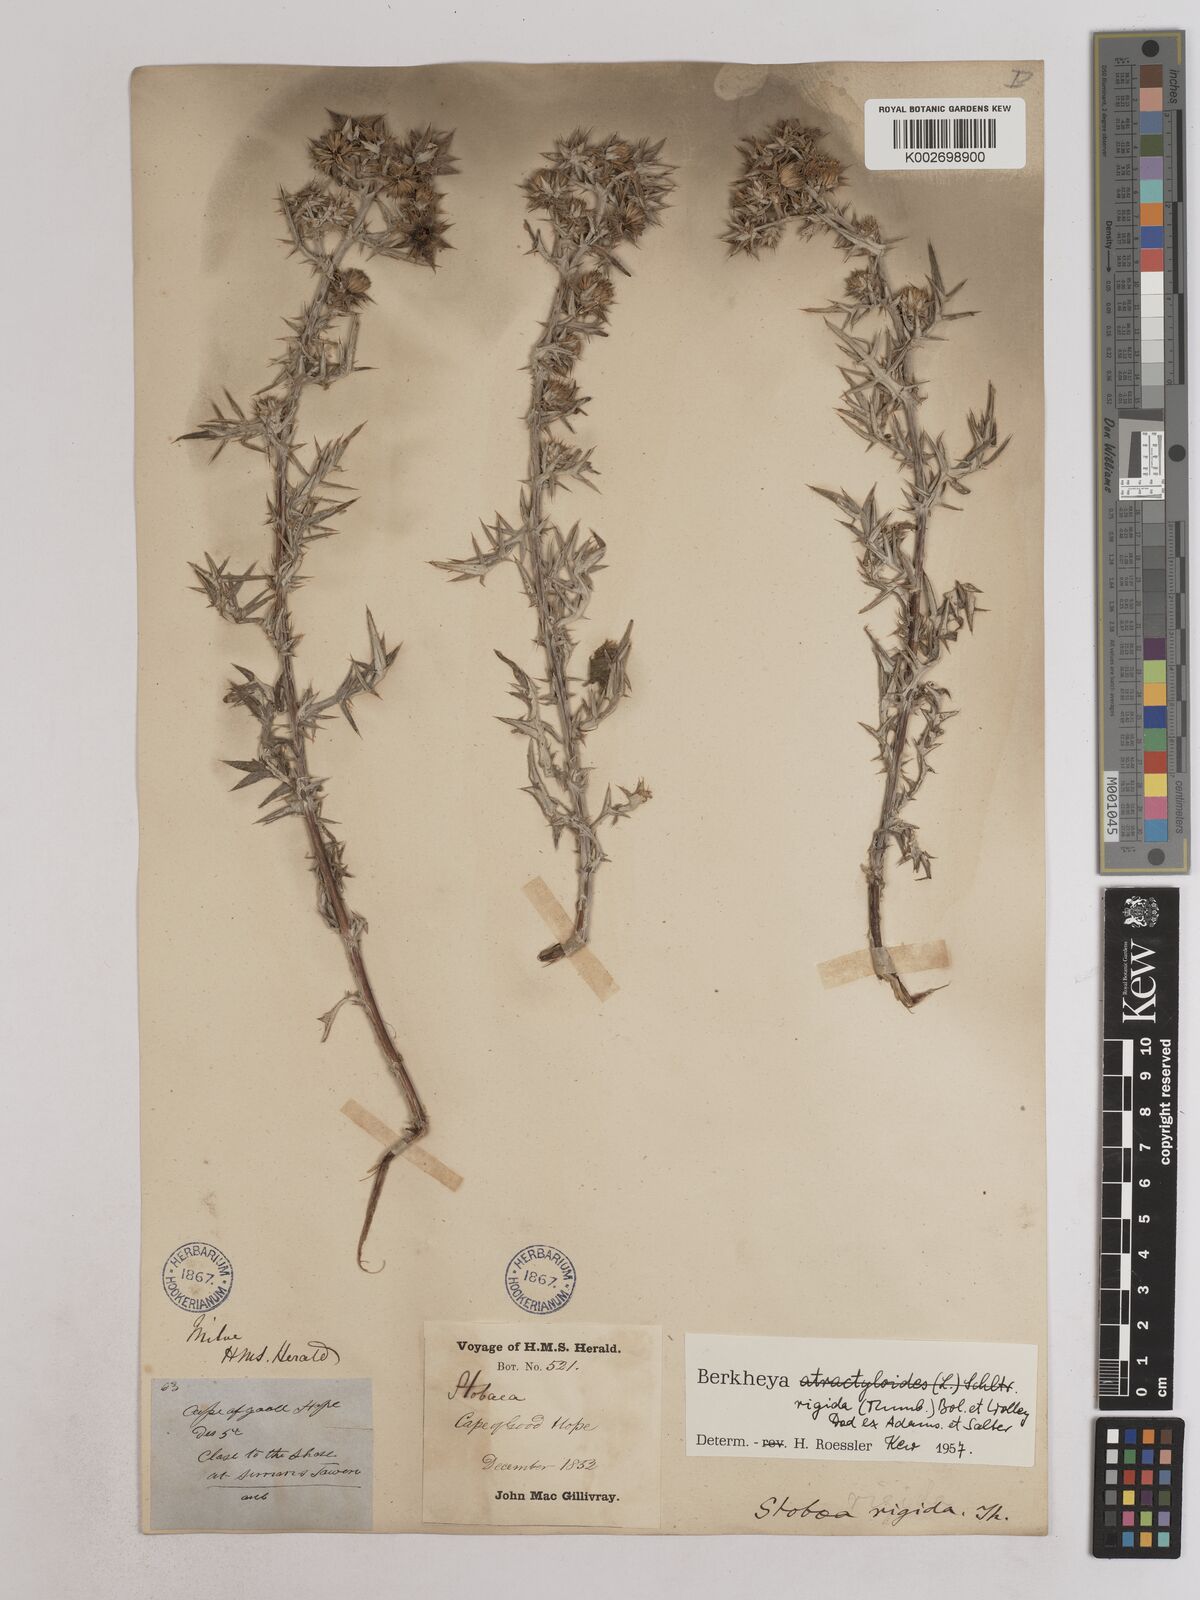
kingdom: Plantae
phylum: Tracheophyta
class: Magnoliopsida
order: Asterales
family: Asteraceae
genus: Berkheya
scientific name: Berkheya rigida
